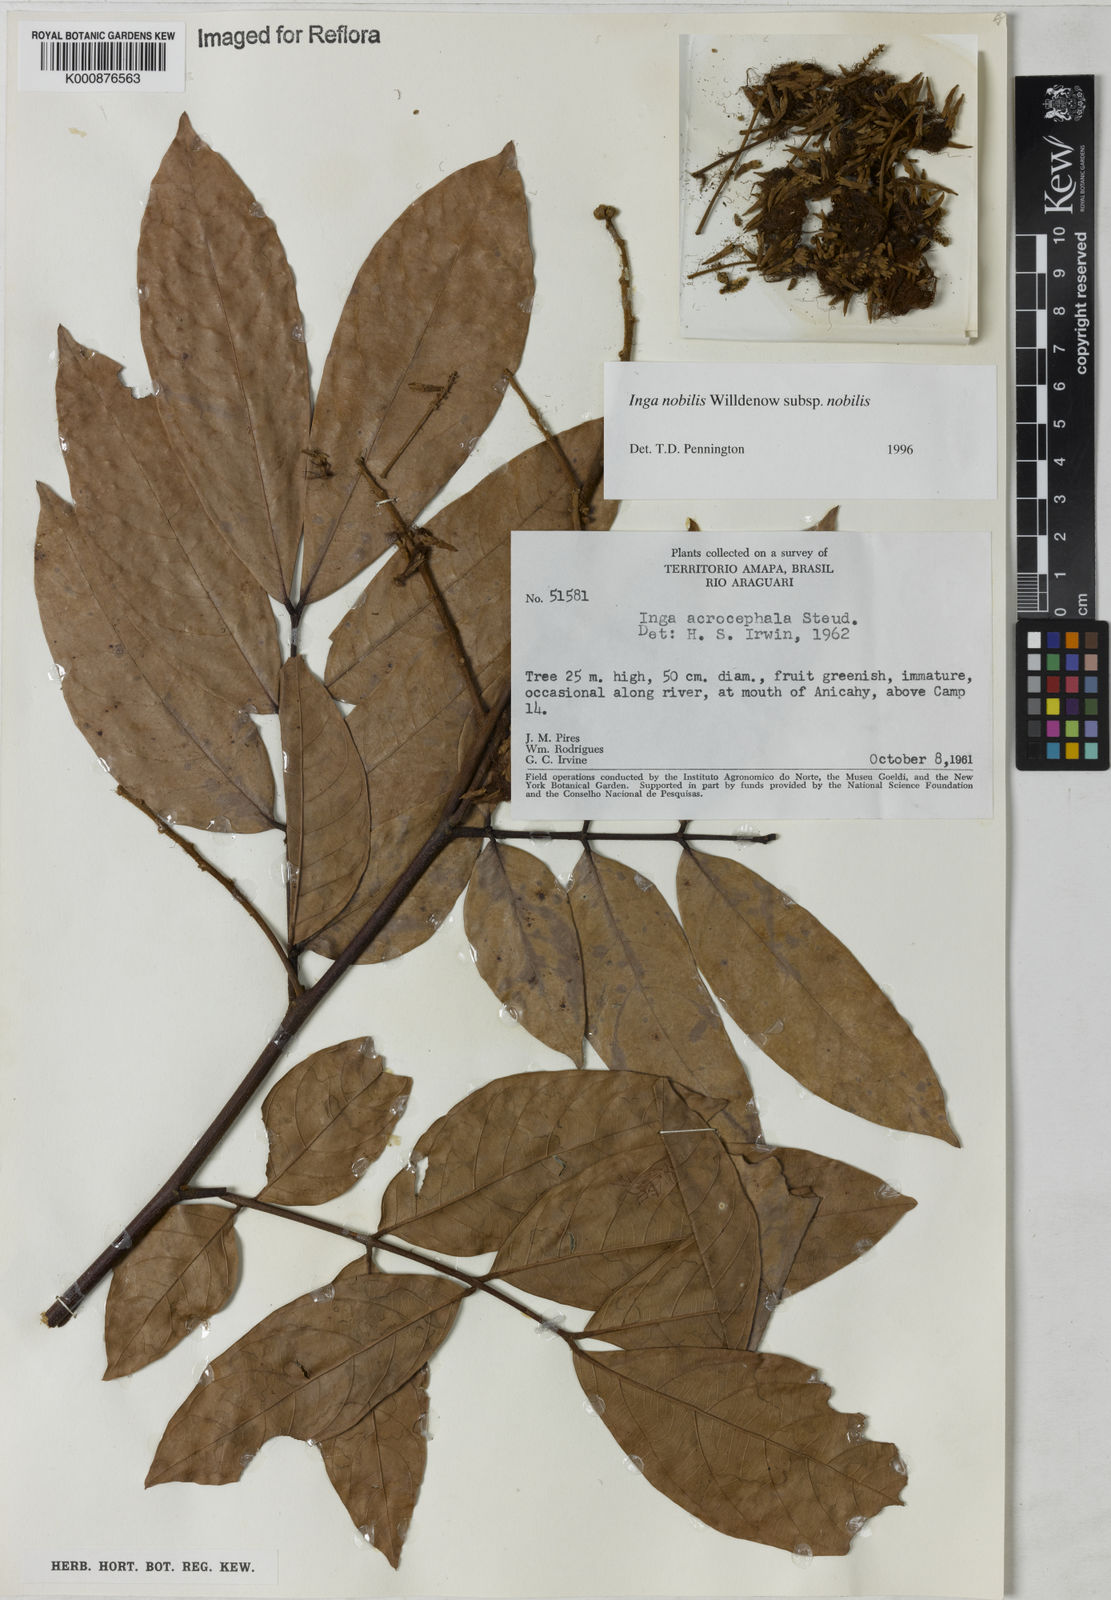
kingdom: Plantae
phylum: Tracheophyta
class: Magnoliopsida
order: Fabales
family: Fabaceae
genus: Inga
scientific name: Inga nobilis
